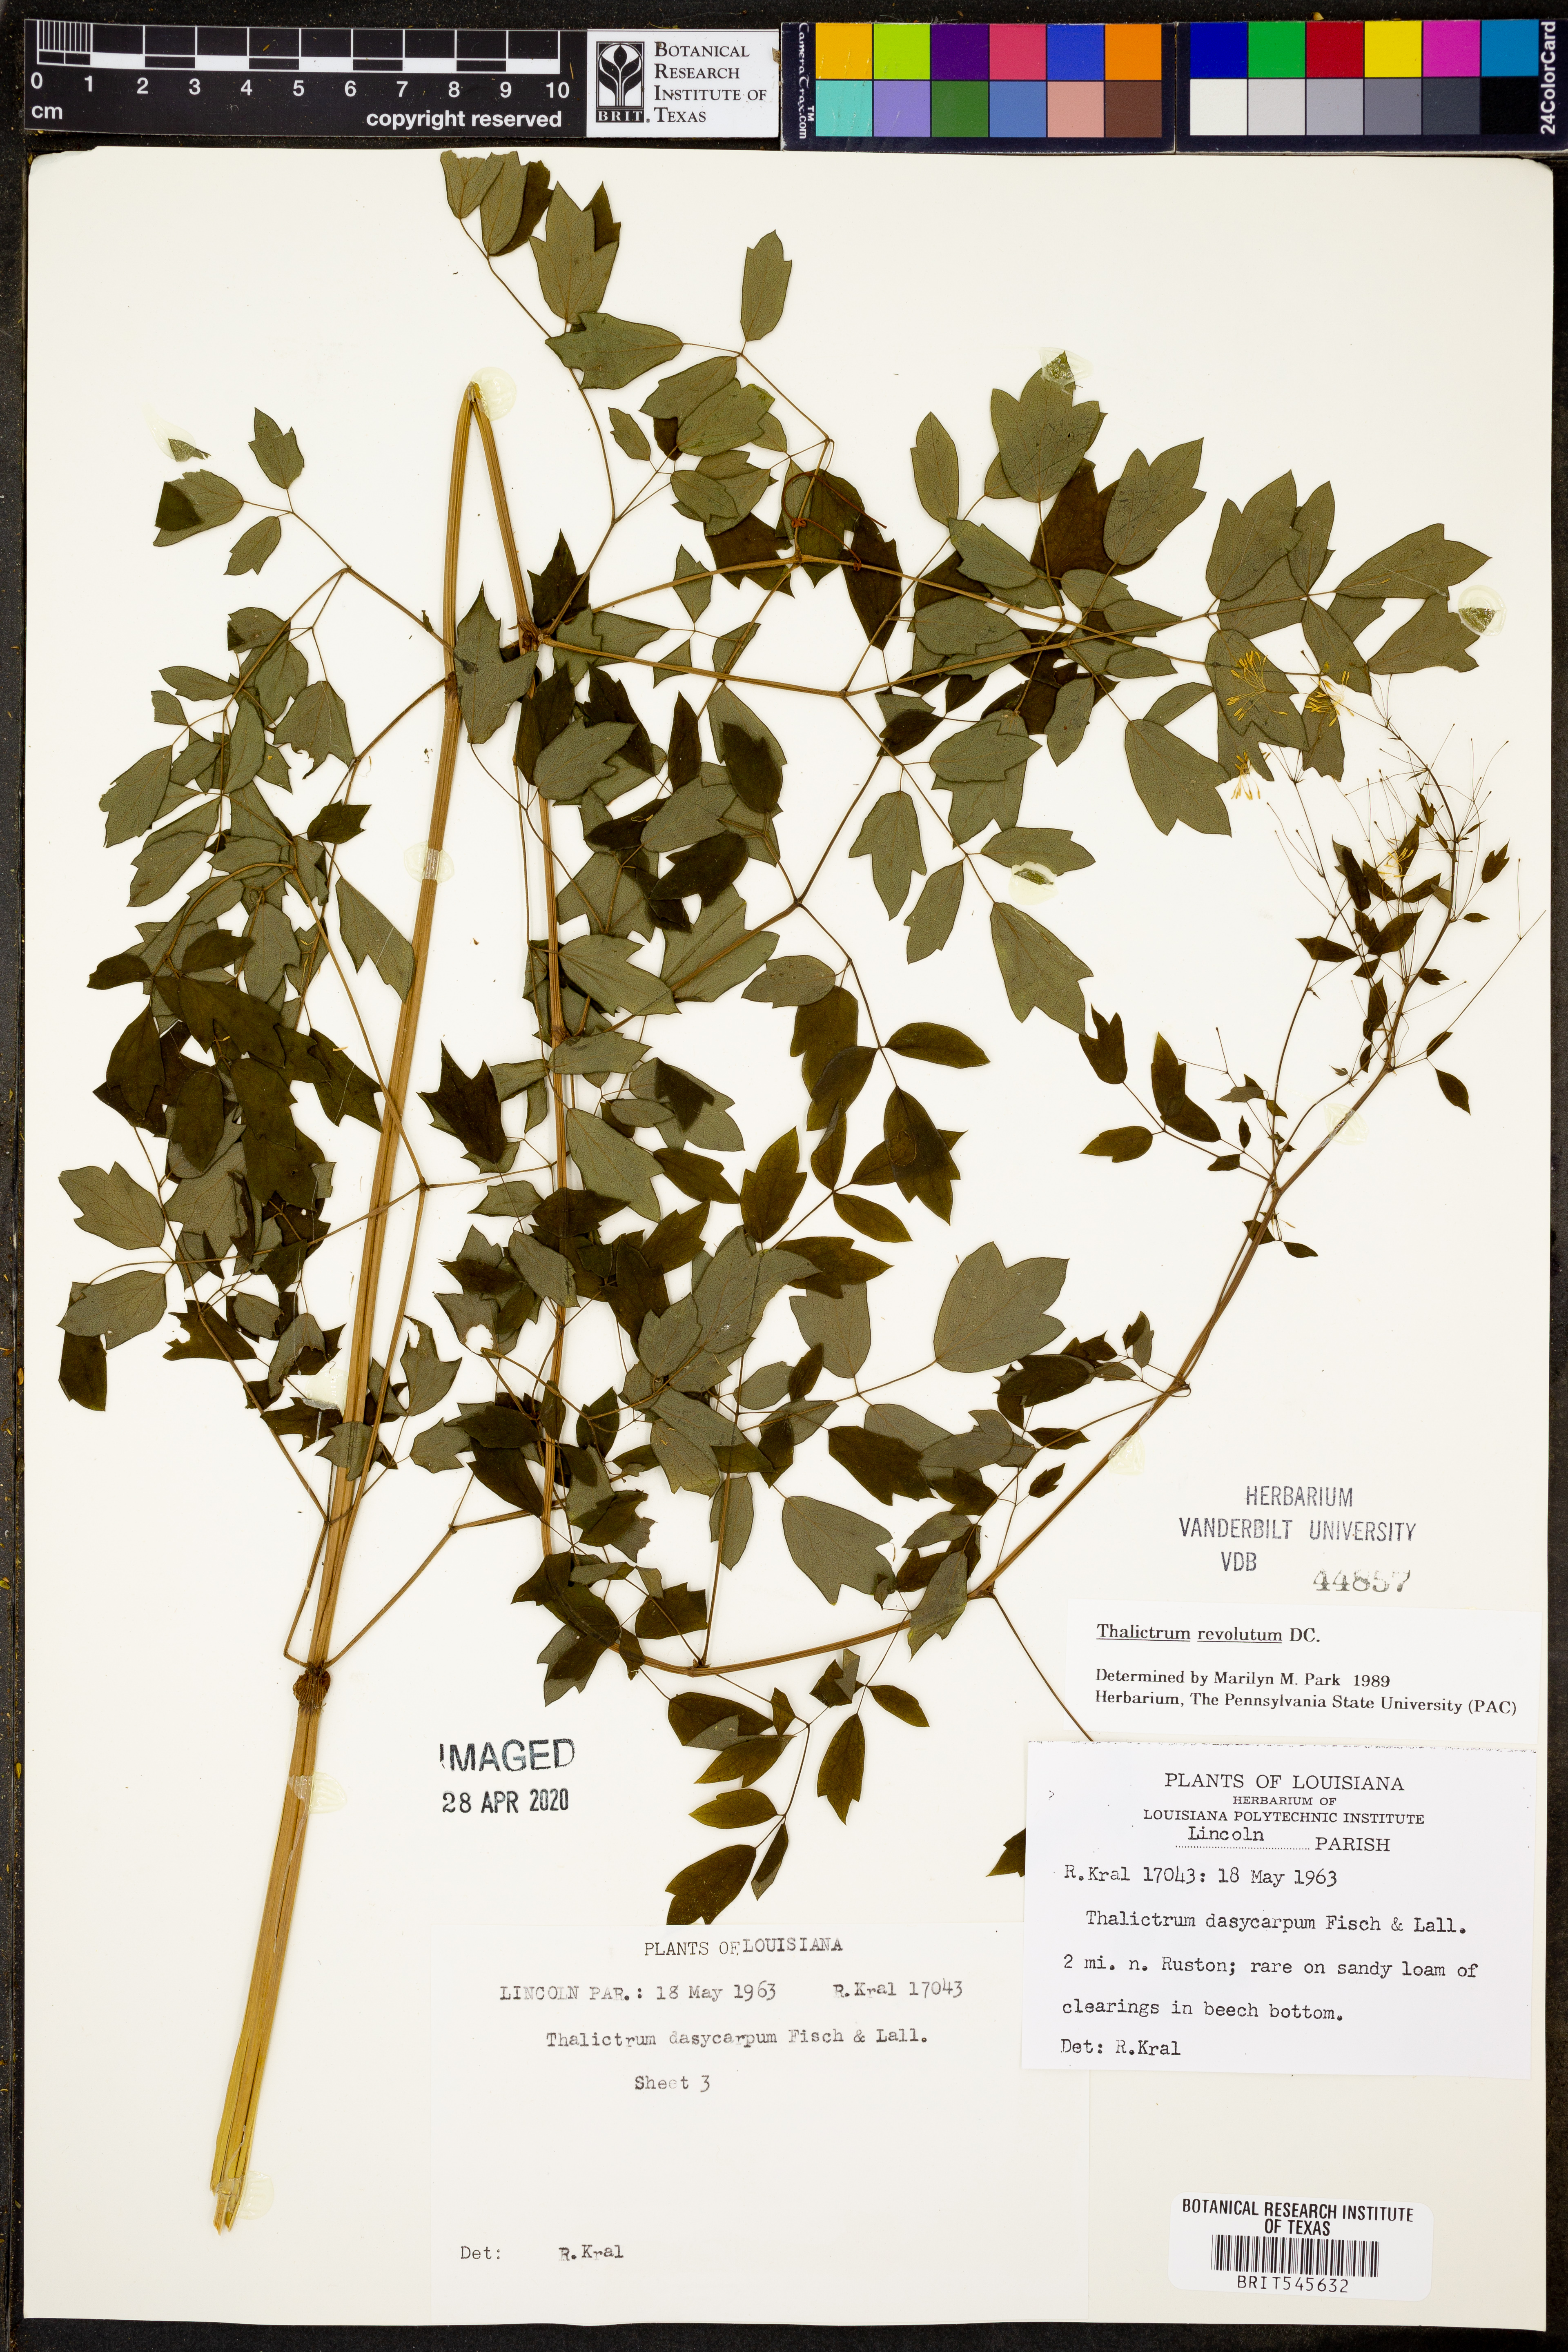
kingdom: Plantae
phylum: Tracheophyta
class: Magnoliopsida
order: Ranunculales
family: Ranunculaceae
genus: Thalictrum
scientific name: Thalictrum revolutum
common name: Waxy meadow-rue
